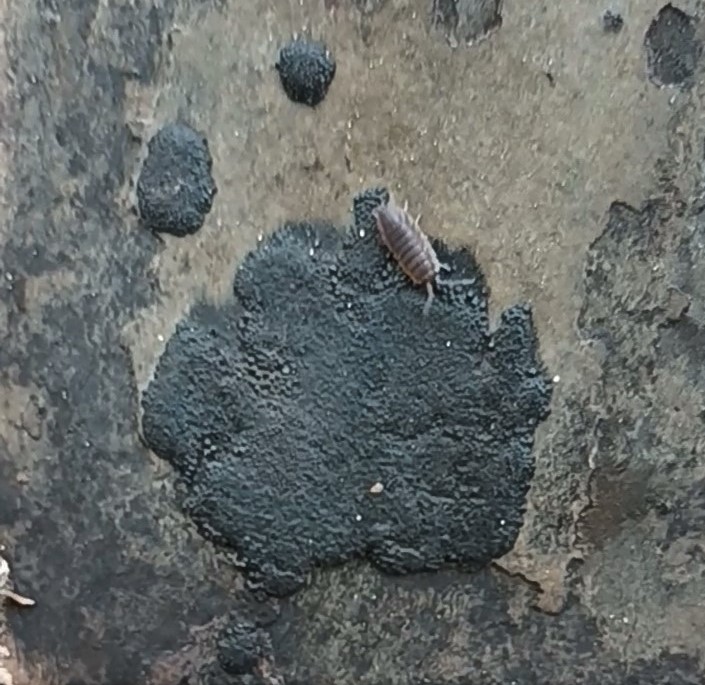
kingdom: Fungi
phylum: Ascomycota
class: Sordariomycetes
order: Xylariales
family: Hypoxylaceae
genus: Hypoxylon
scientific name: Hypoxylon
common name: kulbær
